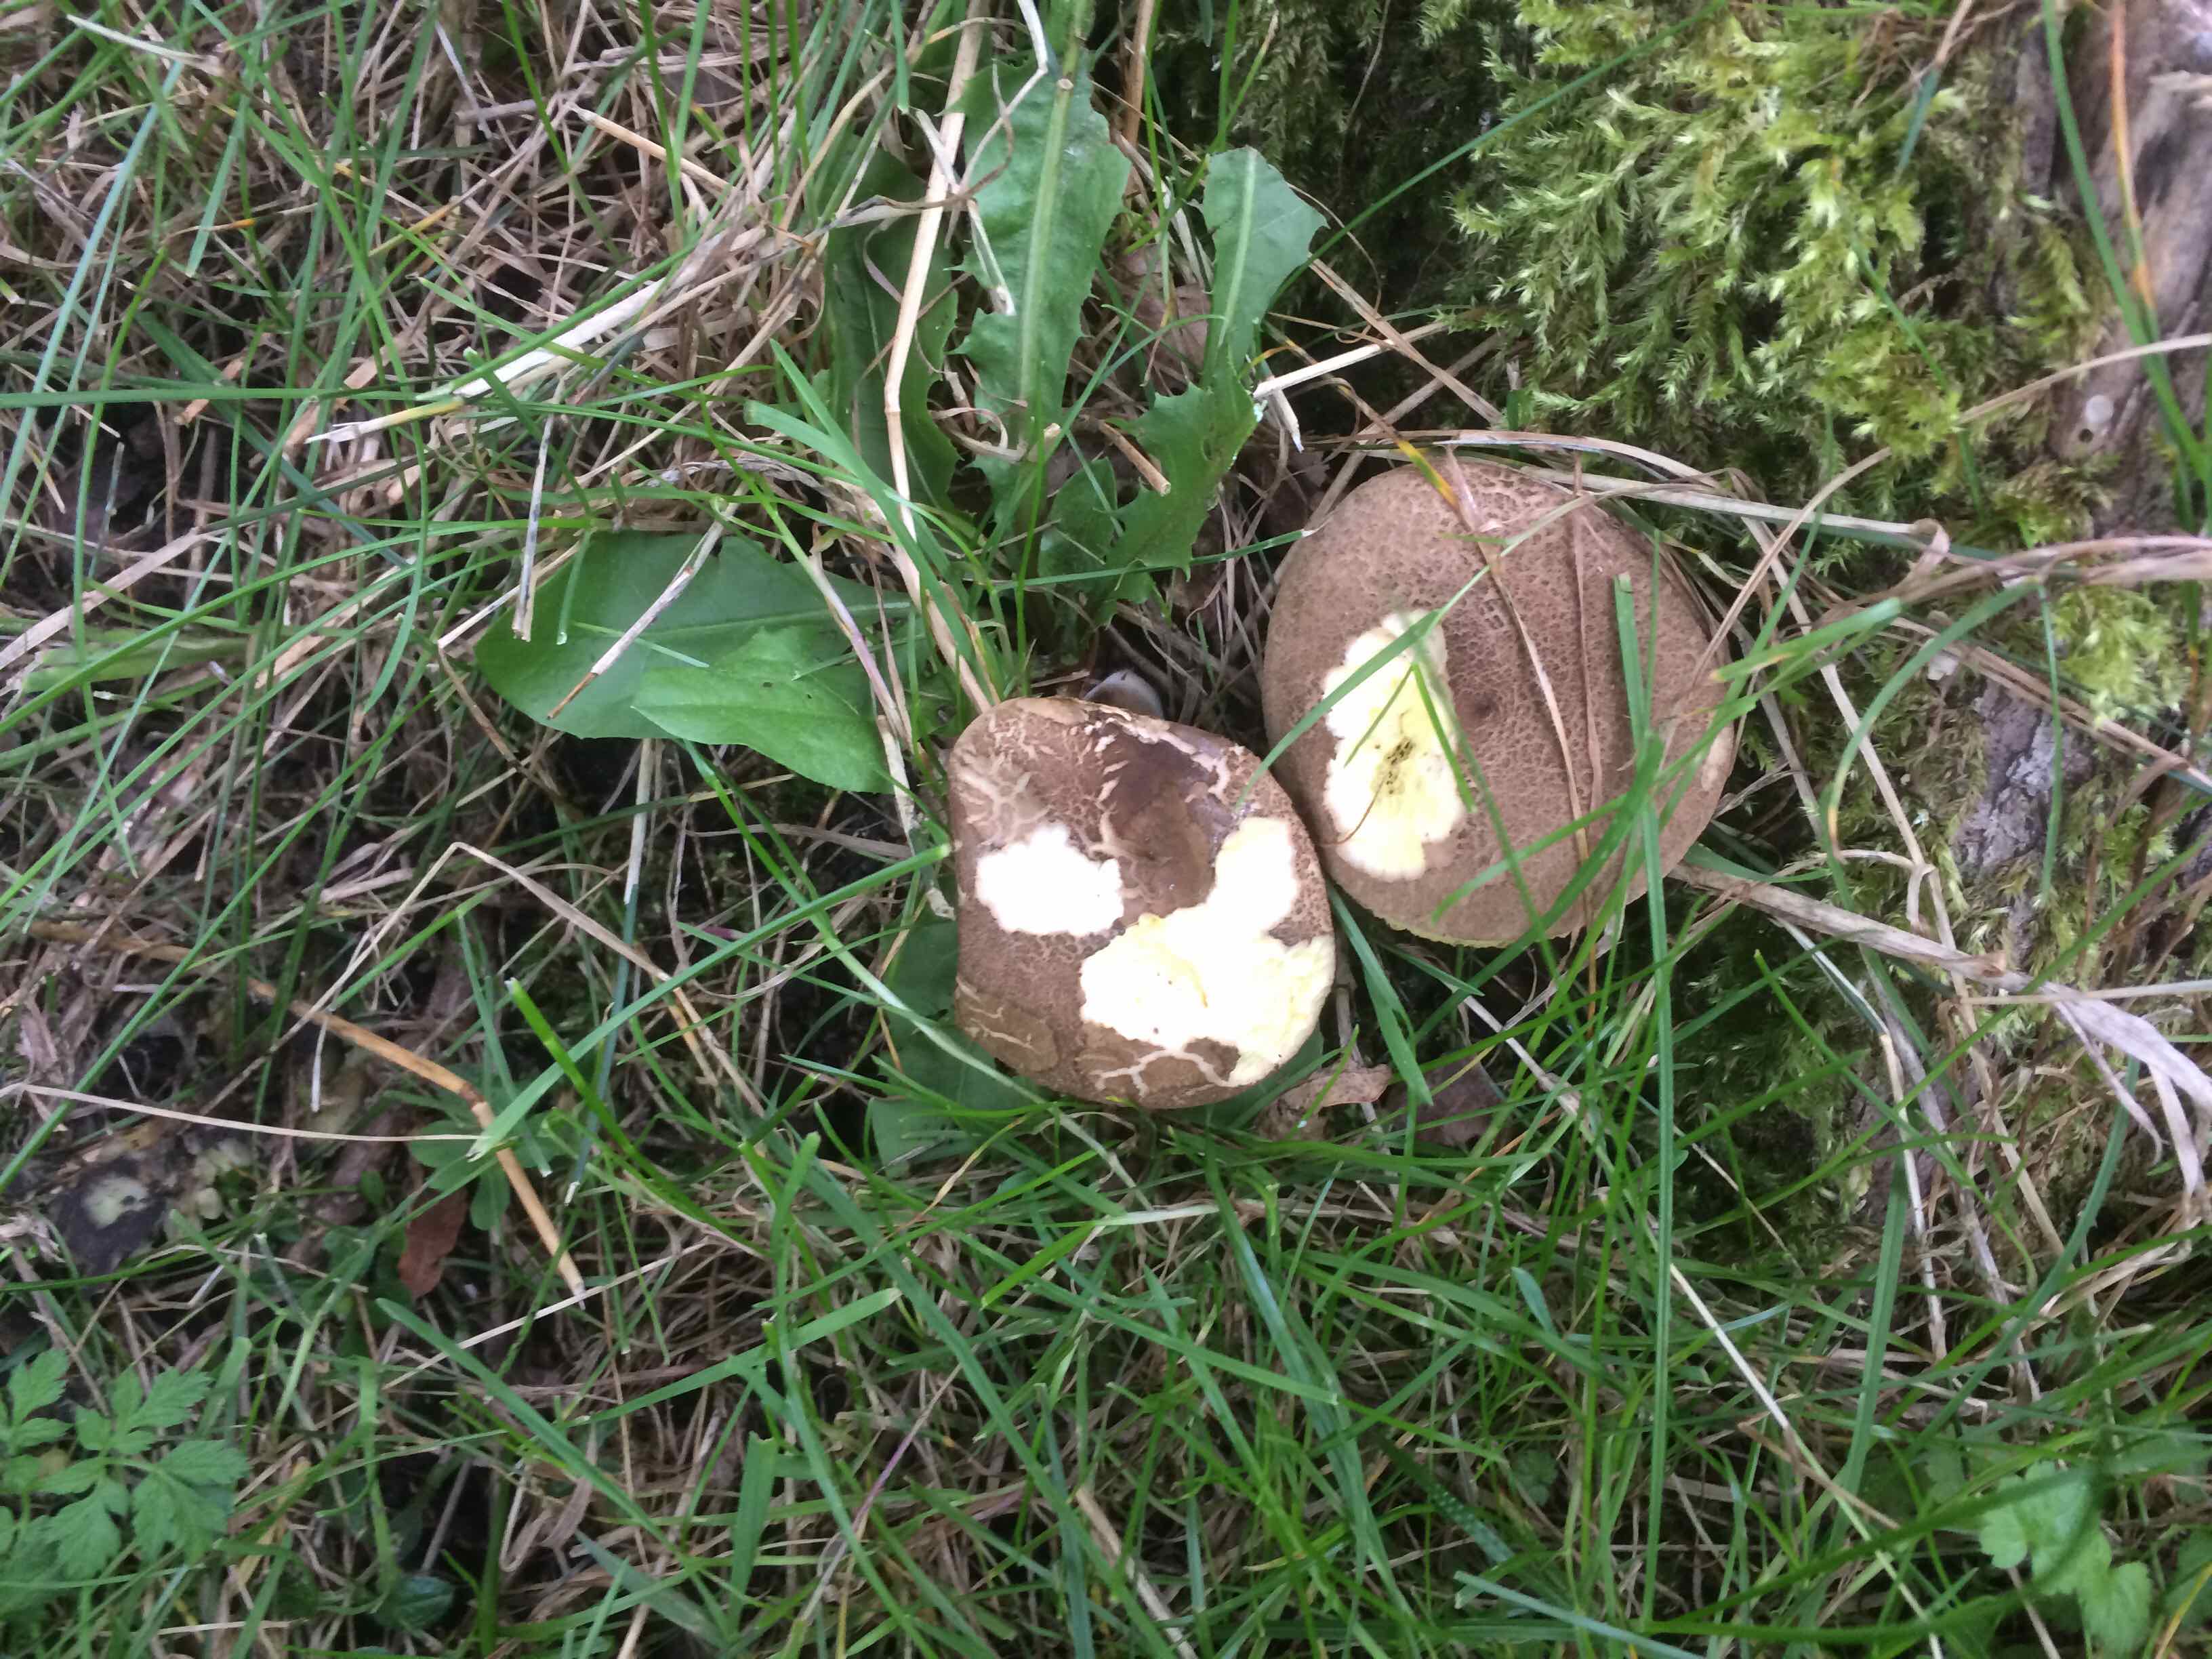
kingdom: Fungi
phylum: Basidiomycota
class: Agaricomycetes
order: Boletales
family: Boletaceae
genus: Xerocomellus
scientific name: Xerocomellus porosporus
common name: hvidsprukken rørhat
